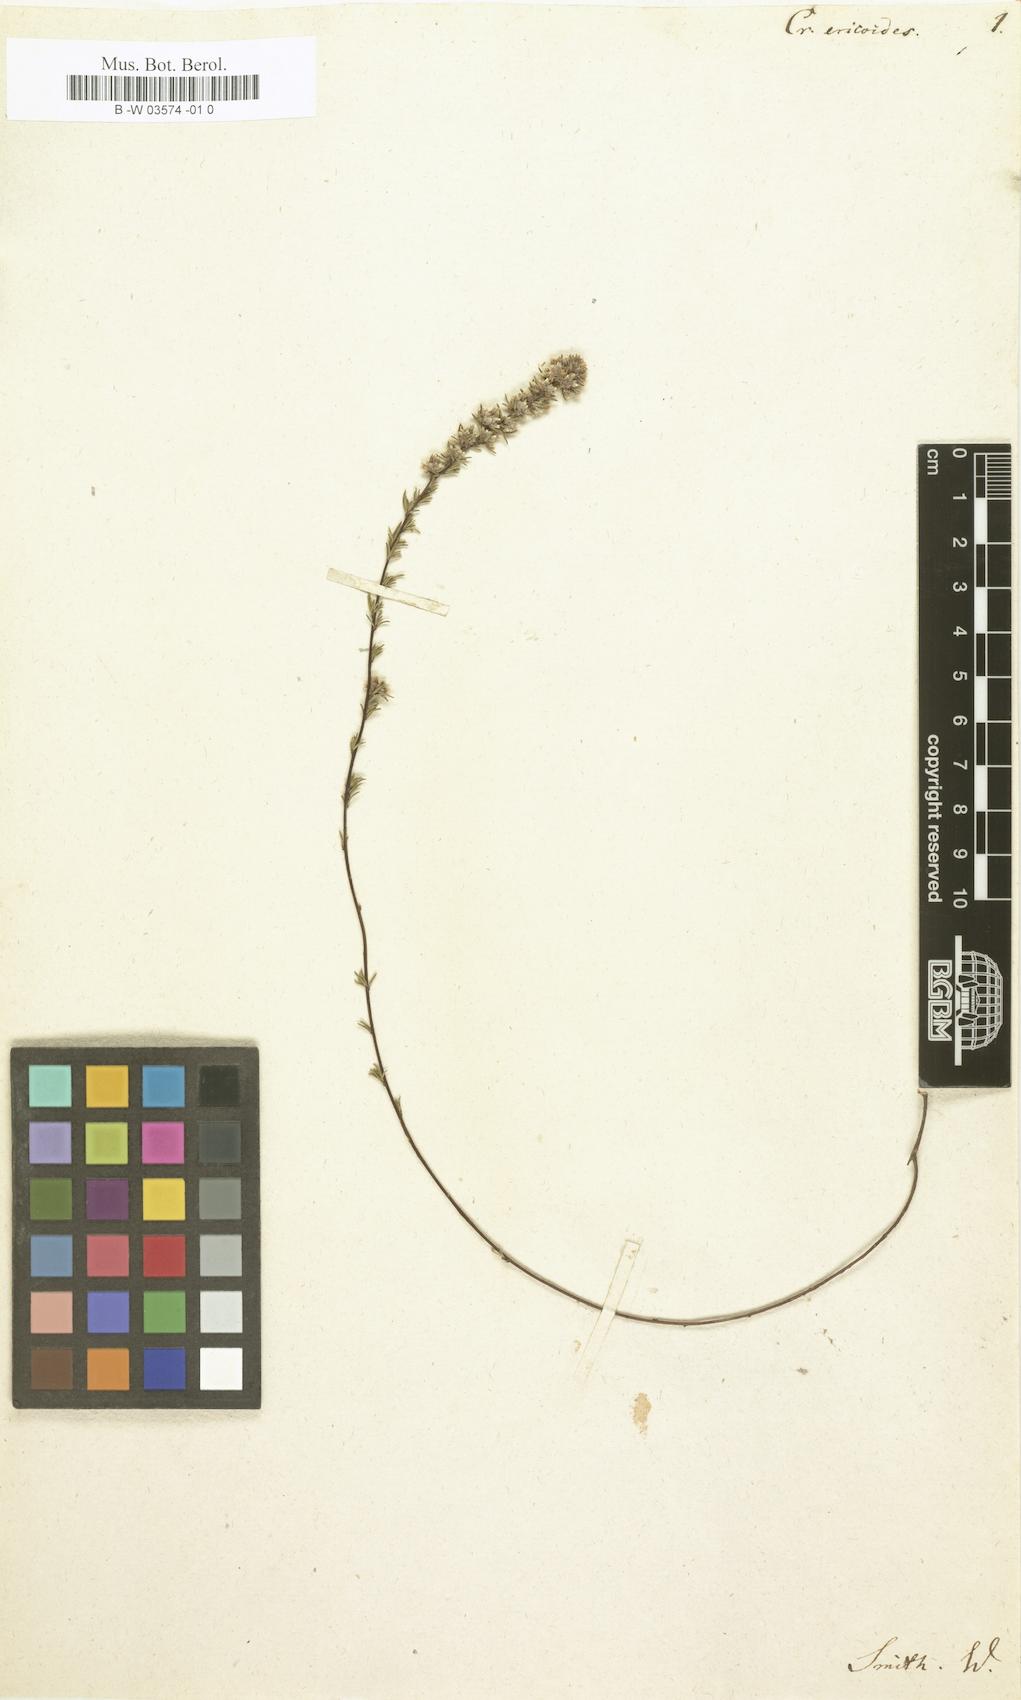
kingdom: Plantae
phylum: Tracheophyta
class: Magnoliopsida
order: Rosales
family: Rhamnaceae
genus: Cryptandra
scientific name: Cryptandra australis
